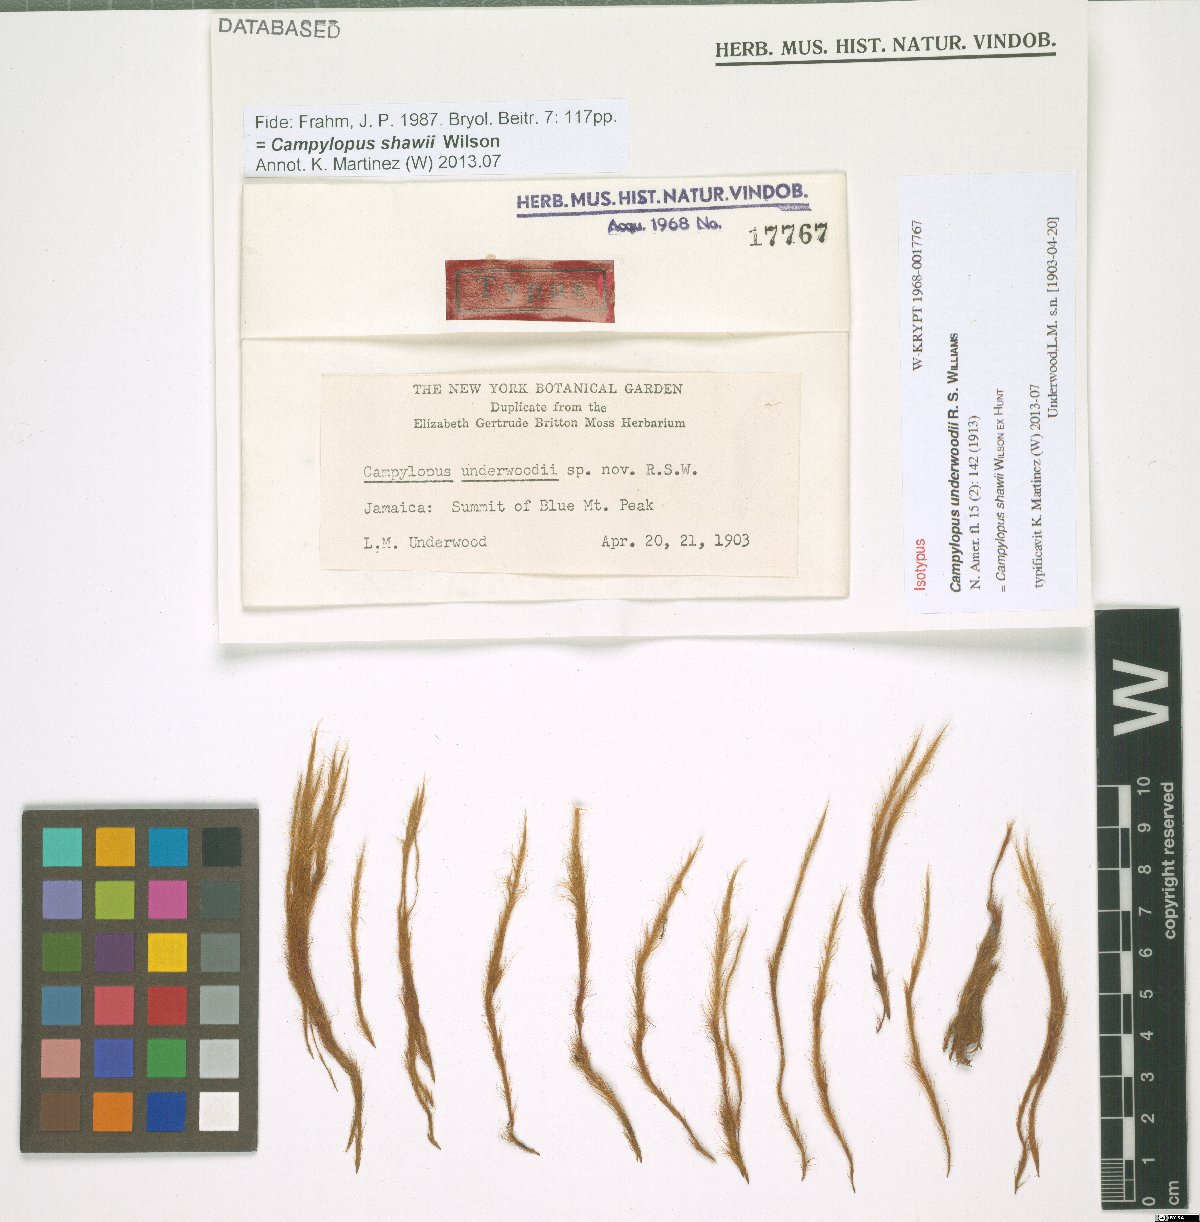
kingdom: Plantae
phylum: Bryophyta
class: Bryopsida
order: Dicranales
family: Leucobryaceae
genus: Campylopus
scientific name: Campylopus shawii
